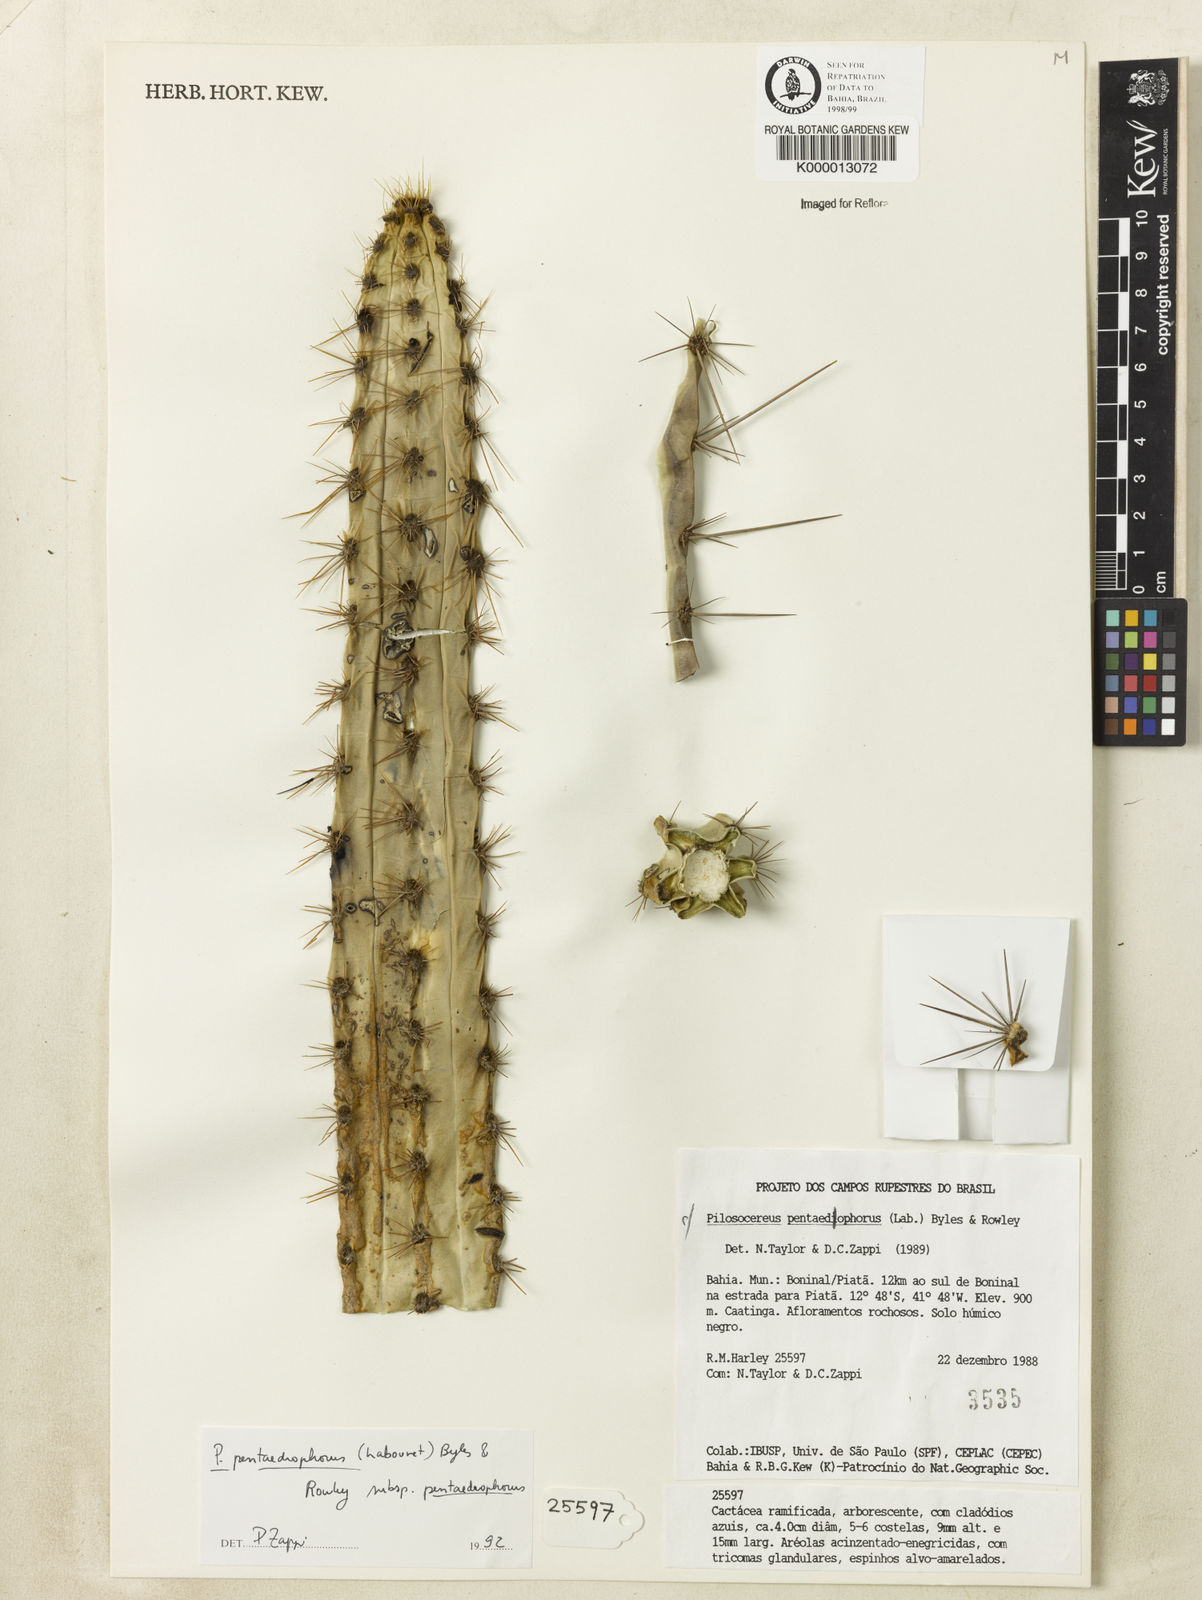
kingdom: Plantae
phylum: Tracheophyta
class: Magnoliopsida
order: Caryophyllales
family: Cactaceae
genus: Pilosocereus
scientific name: Pilosocereus pentaedrophorus
